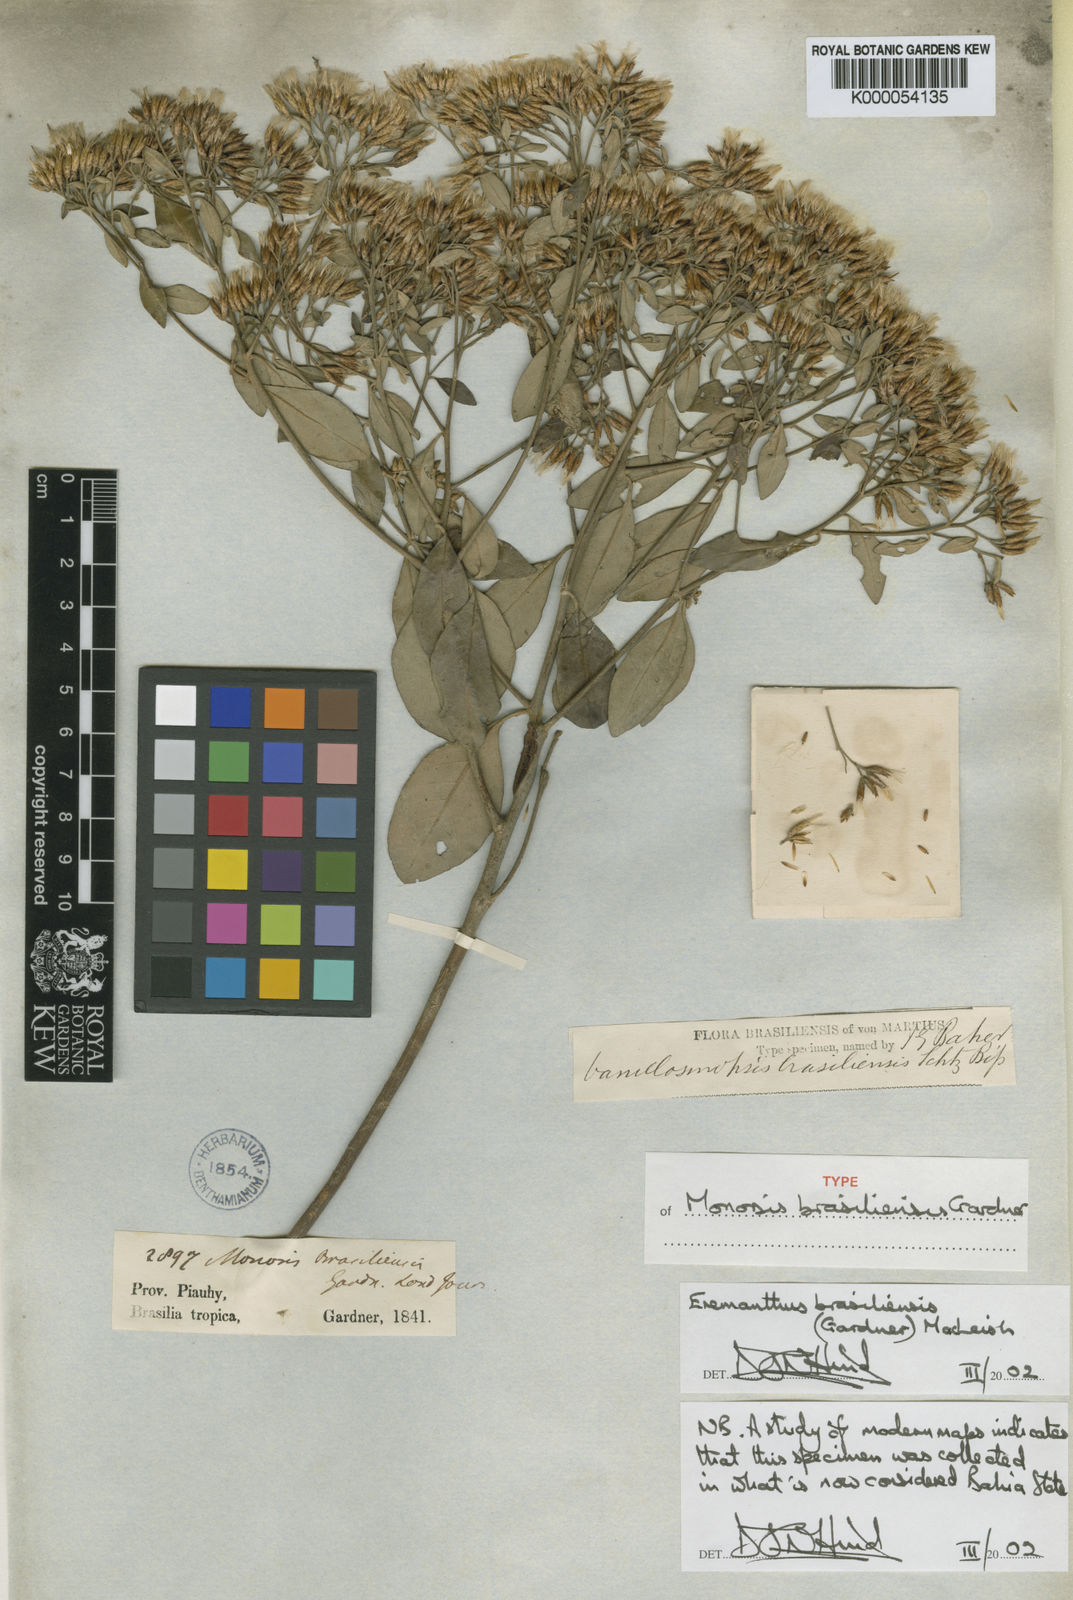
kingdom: Plantae
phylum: Tracheophyta
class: Magnoliopsida
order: Asterales
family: Asteraceae
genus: Eremanthus
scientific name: Eremanthus brasiliensis
